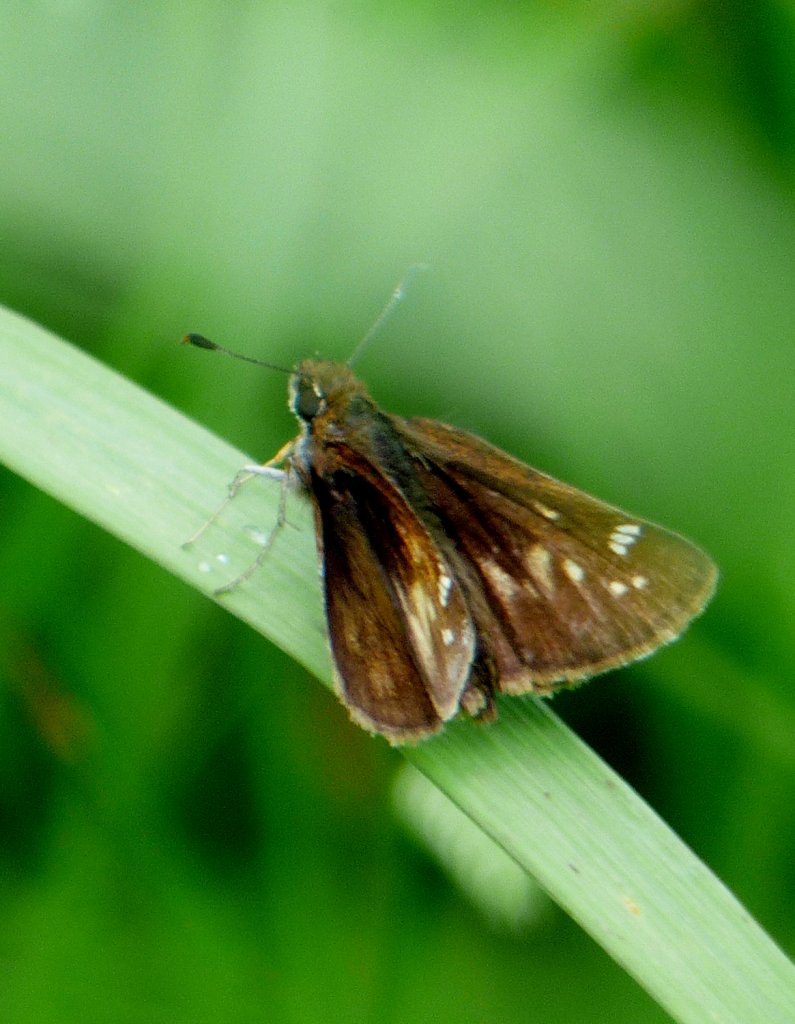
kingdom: Animalia
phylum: Arthropoda
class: Insecta
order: Lepidoptera
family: Hesperiidae
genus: Lon
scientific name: Lon hobomok
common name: Hobomok Skipper
